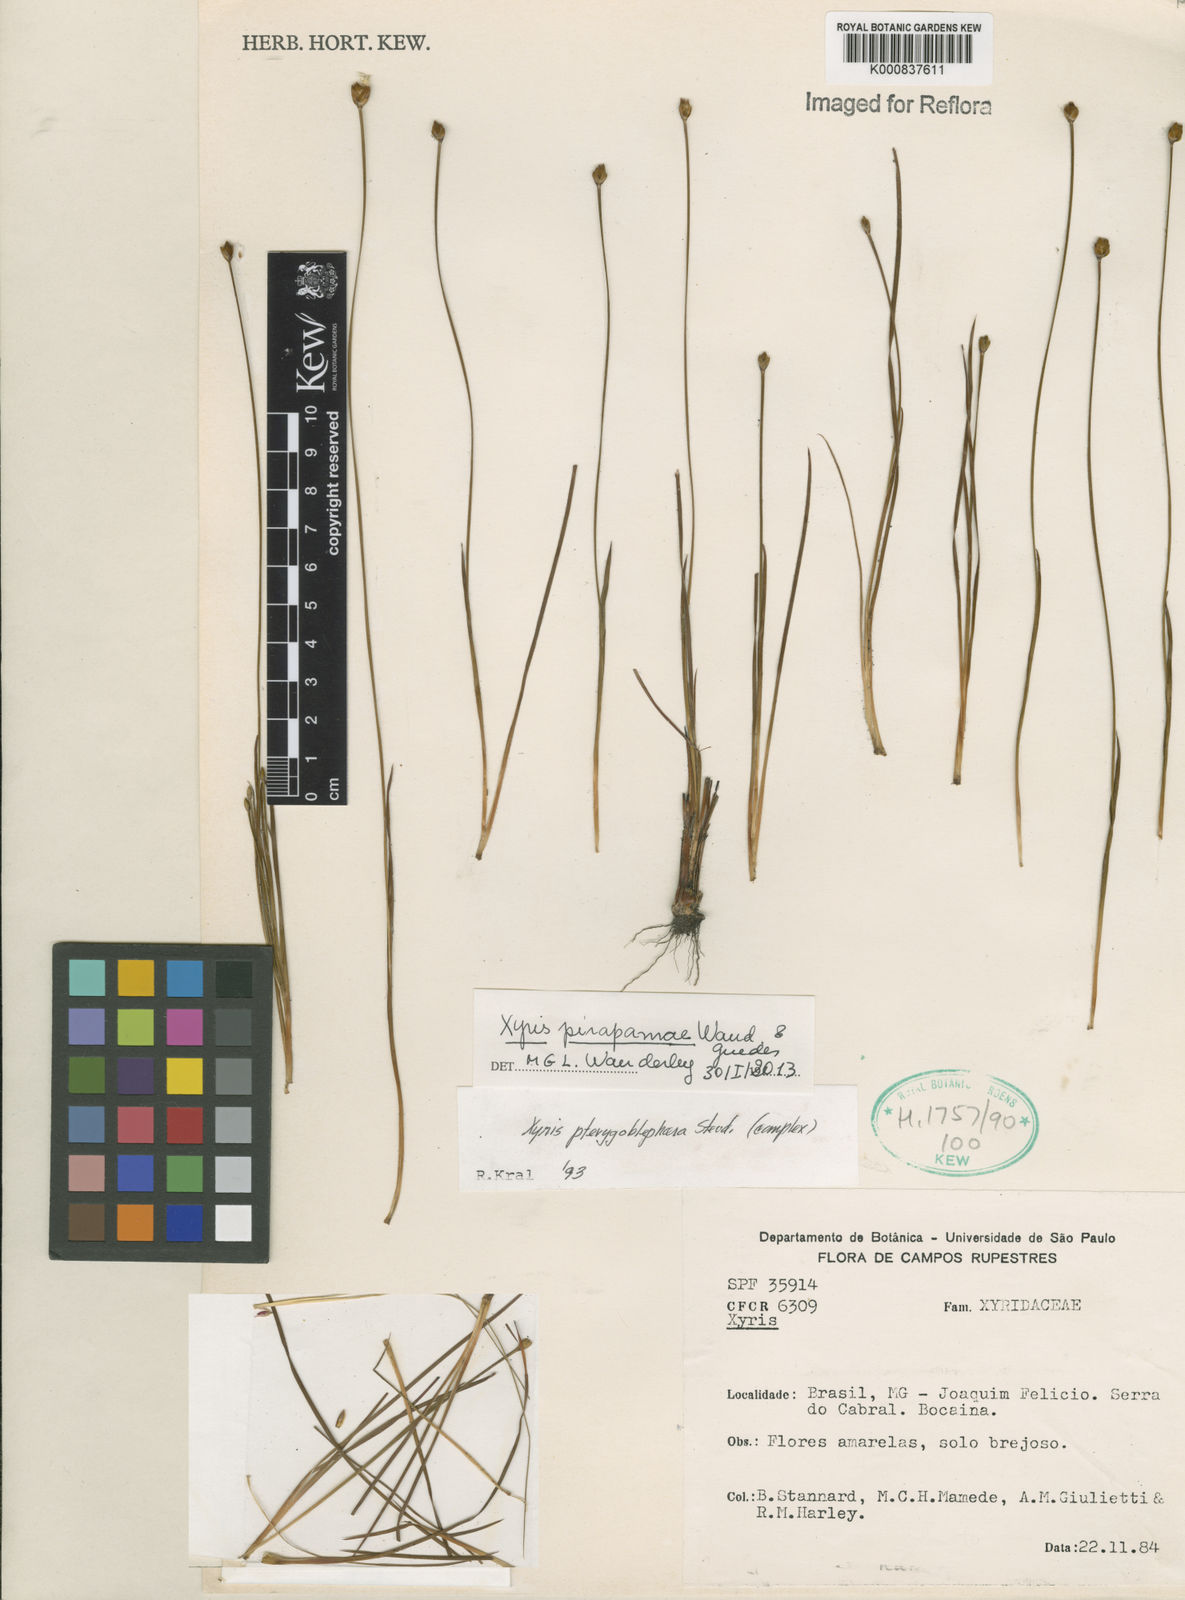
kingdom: Plantae
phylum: Tracheophyta
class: Liliopsida
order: Poales
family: Xyridaceae
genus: Xyris
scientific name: Xyris pirapamae
